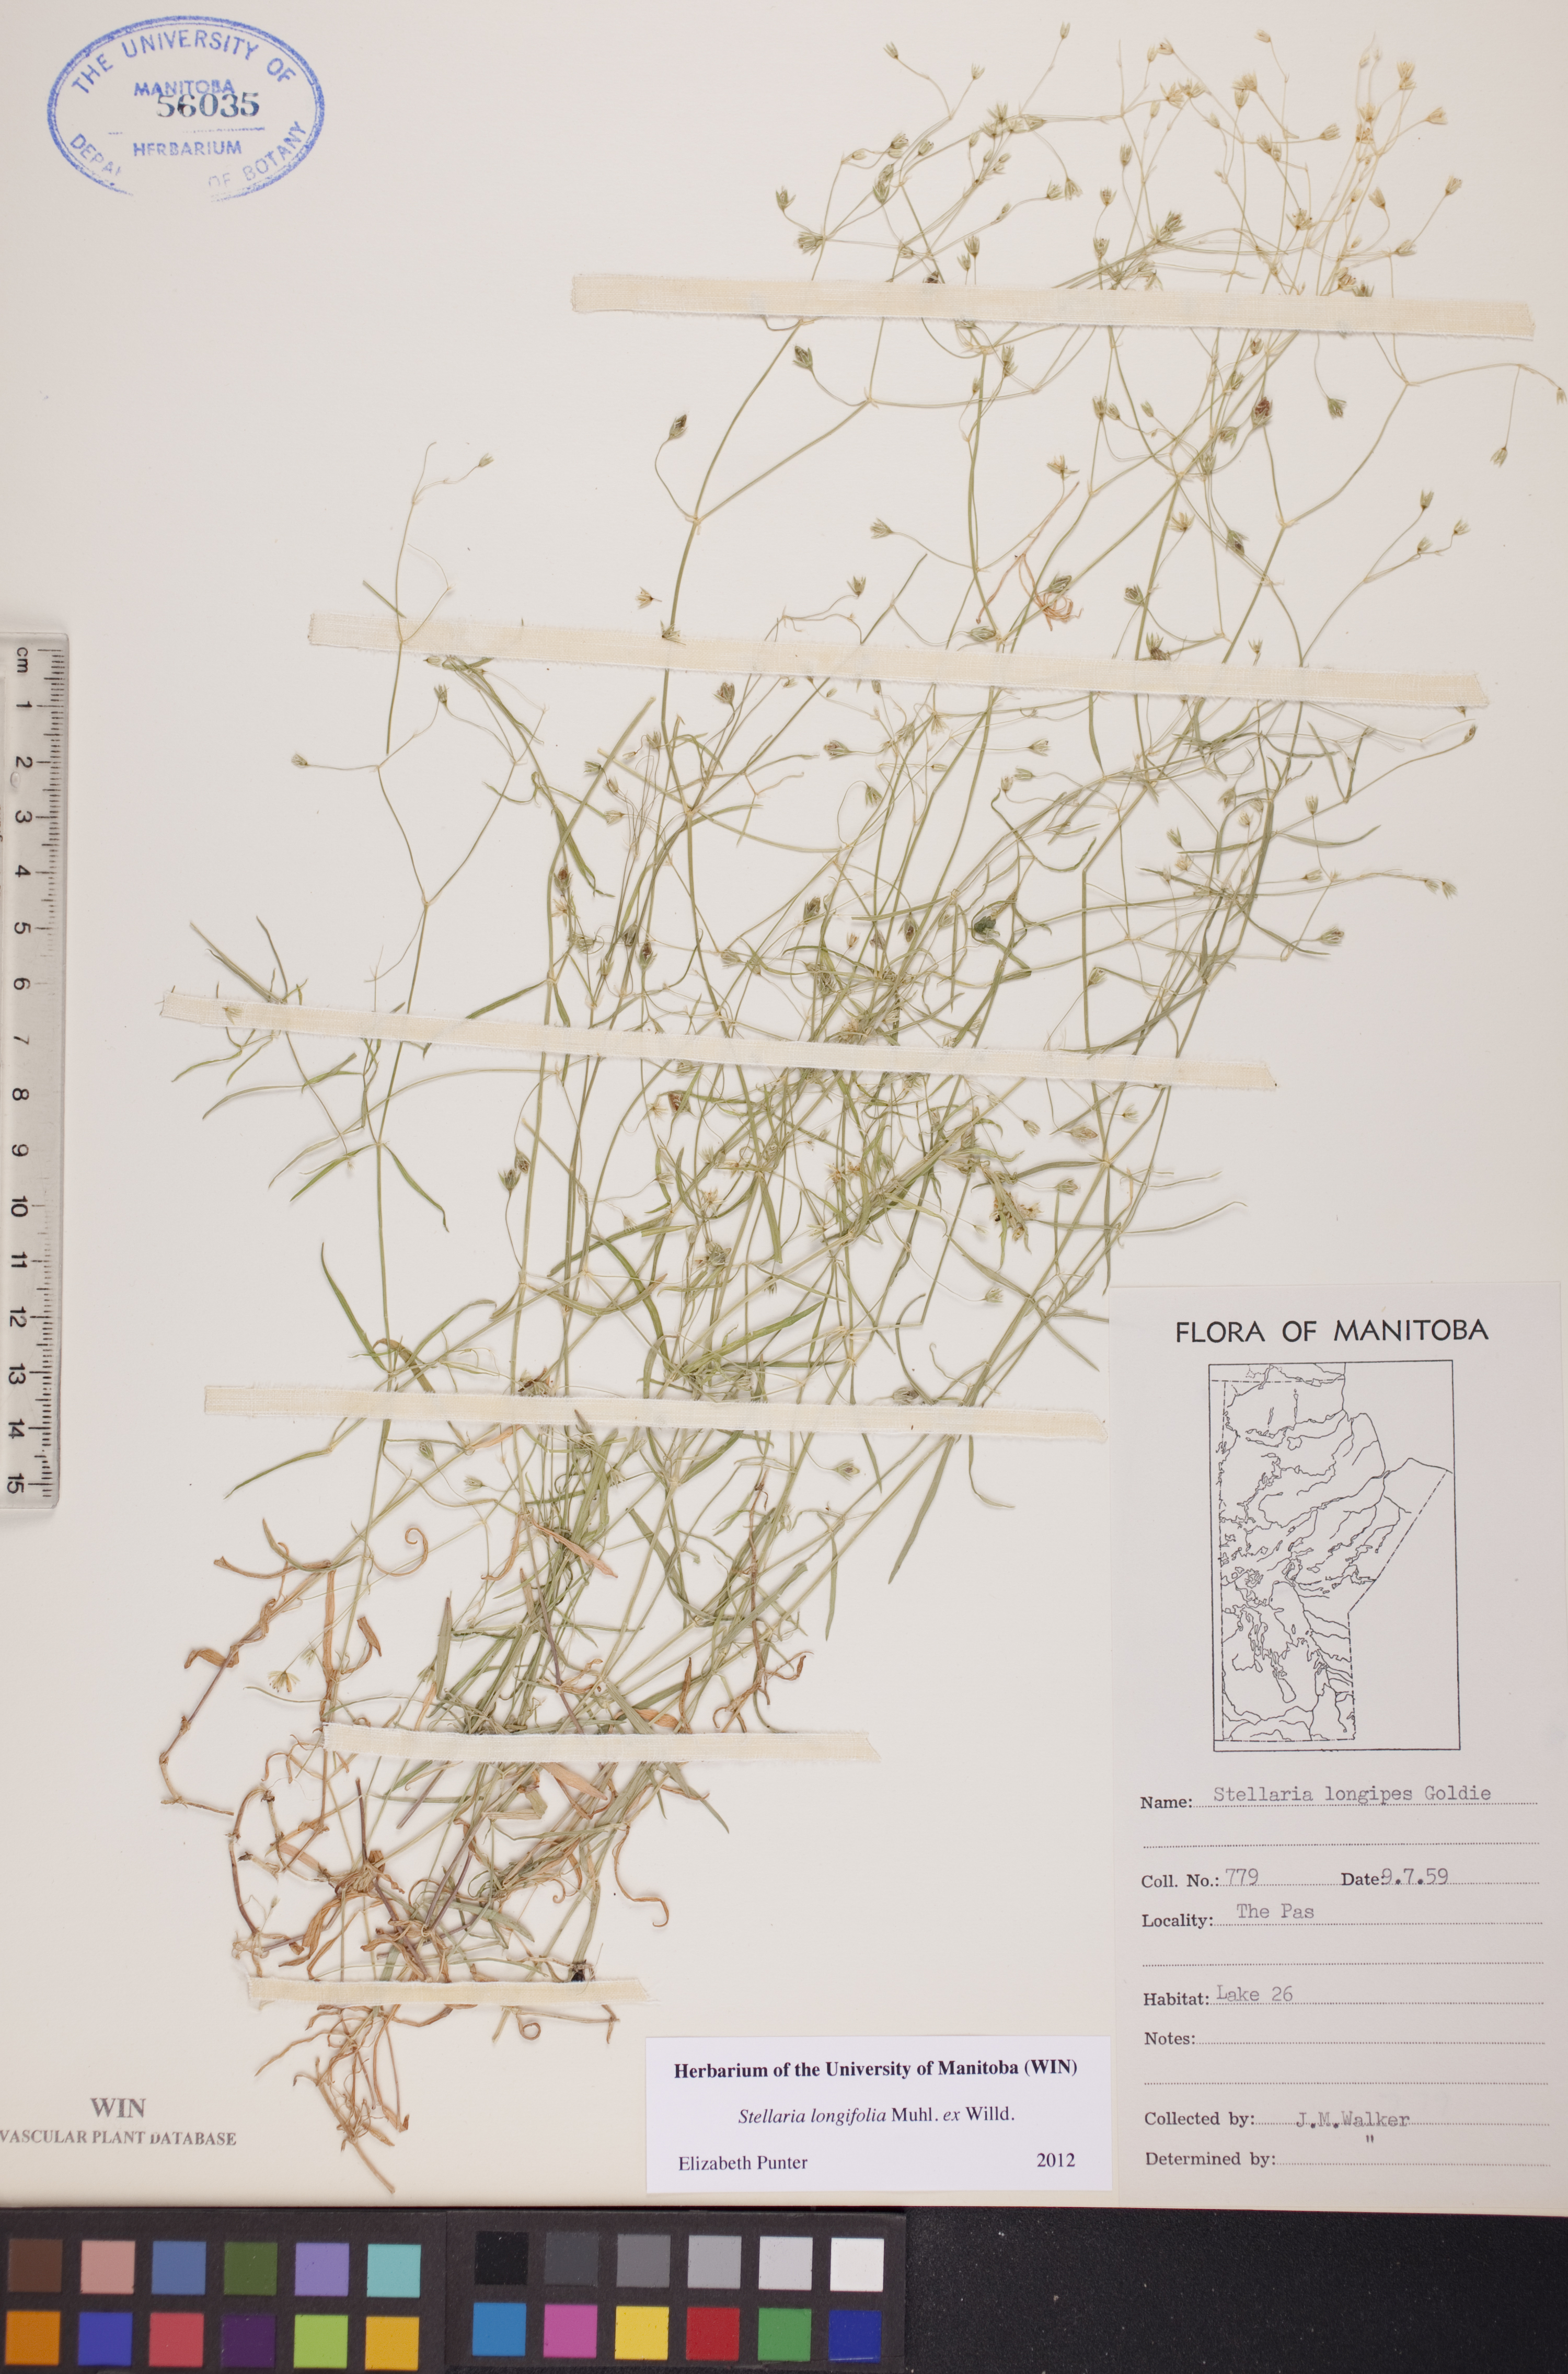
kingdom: Plantae
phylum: Tracheophyta
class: Magnoliopsida
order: Caryophyllales
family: Caryophyllaceae
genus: Stellaria
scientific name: Stellaria longifolia
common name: Long-leaved chickweed
